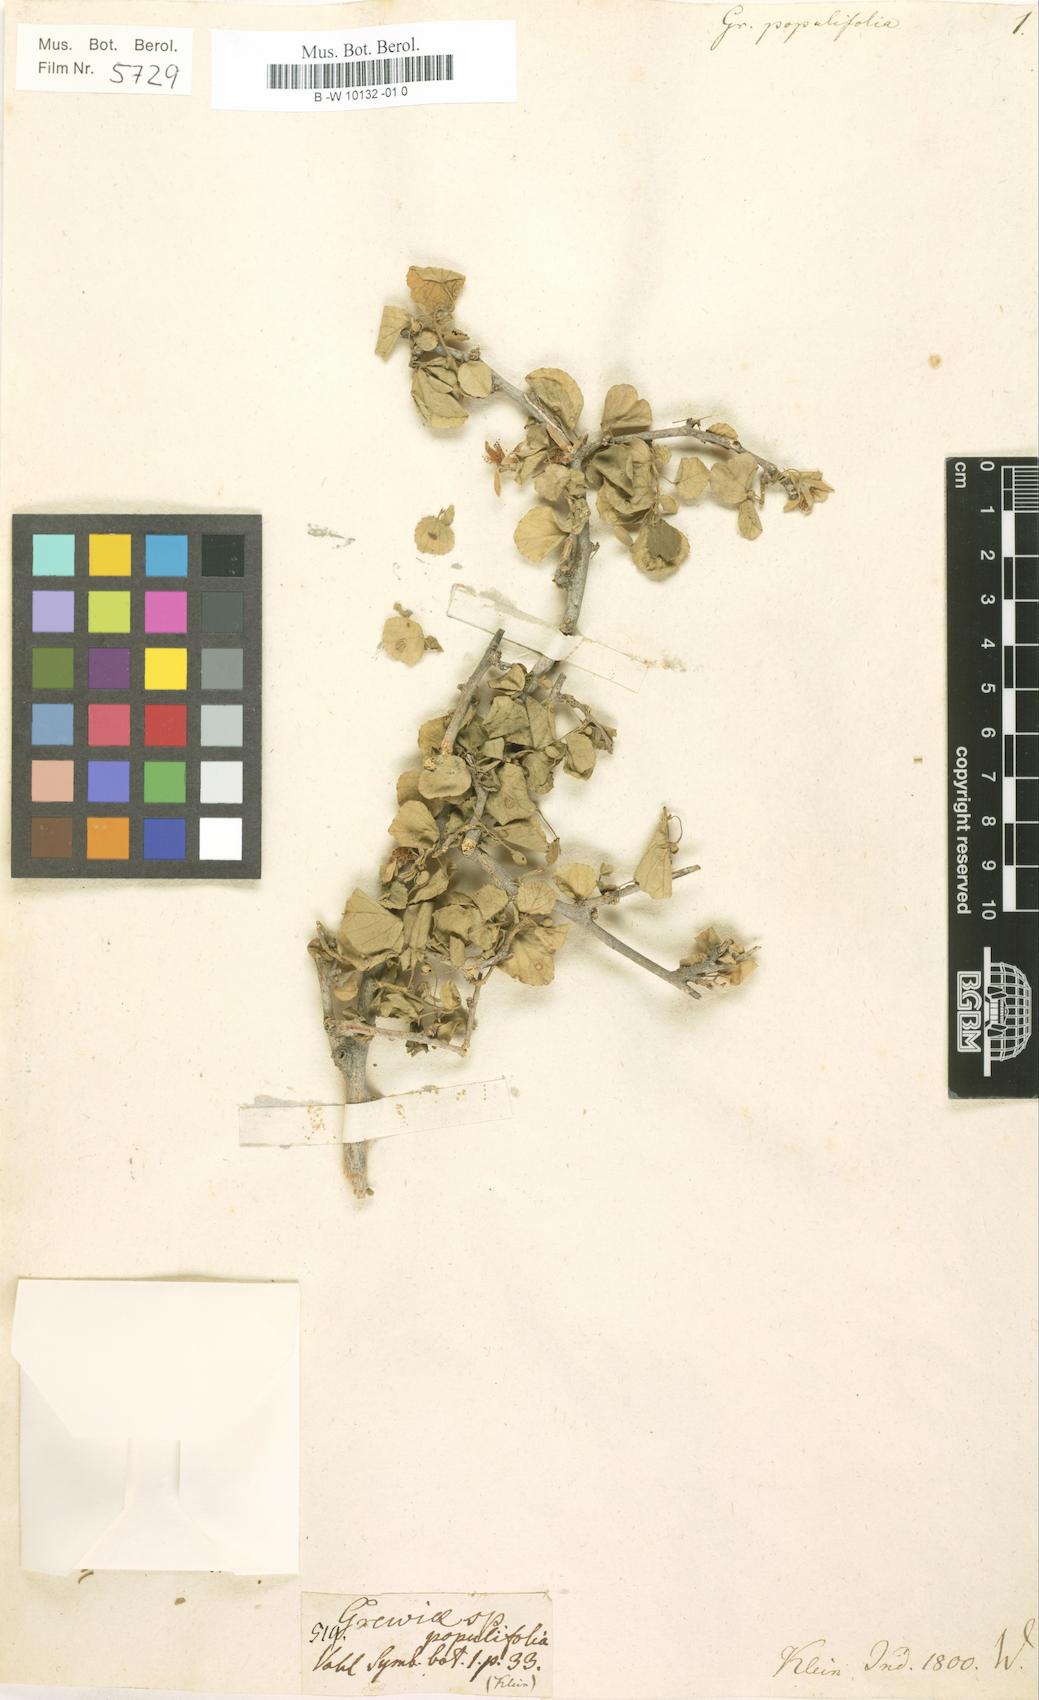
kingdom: Plantae
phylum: Tracheophyta
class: Magnoliopsida
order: Malvales
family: Malvaceae
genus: Grewia
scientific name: Grewia tenax
